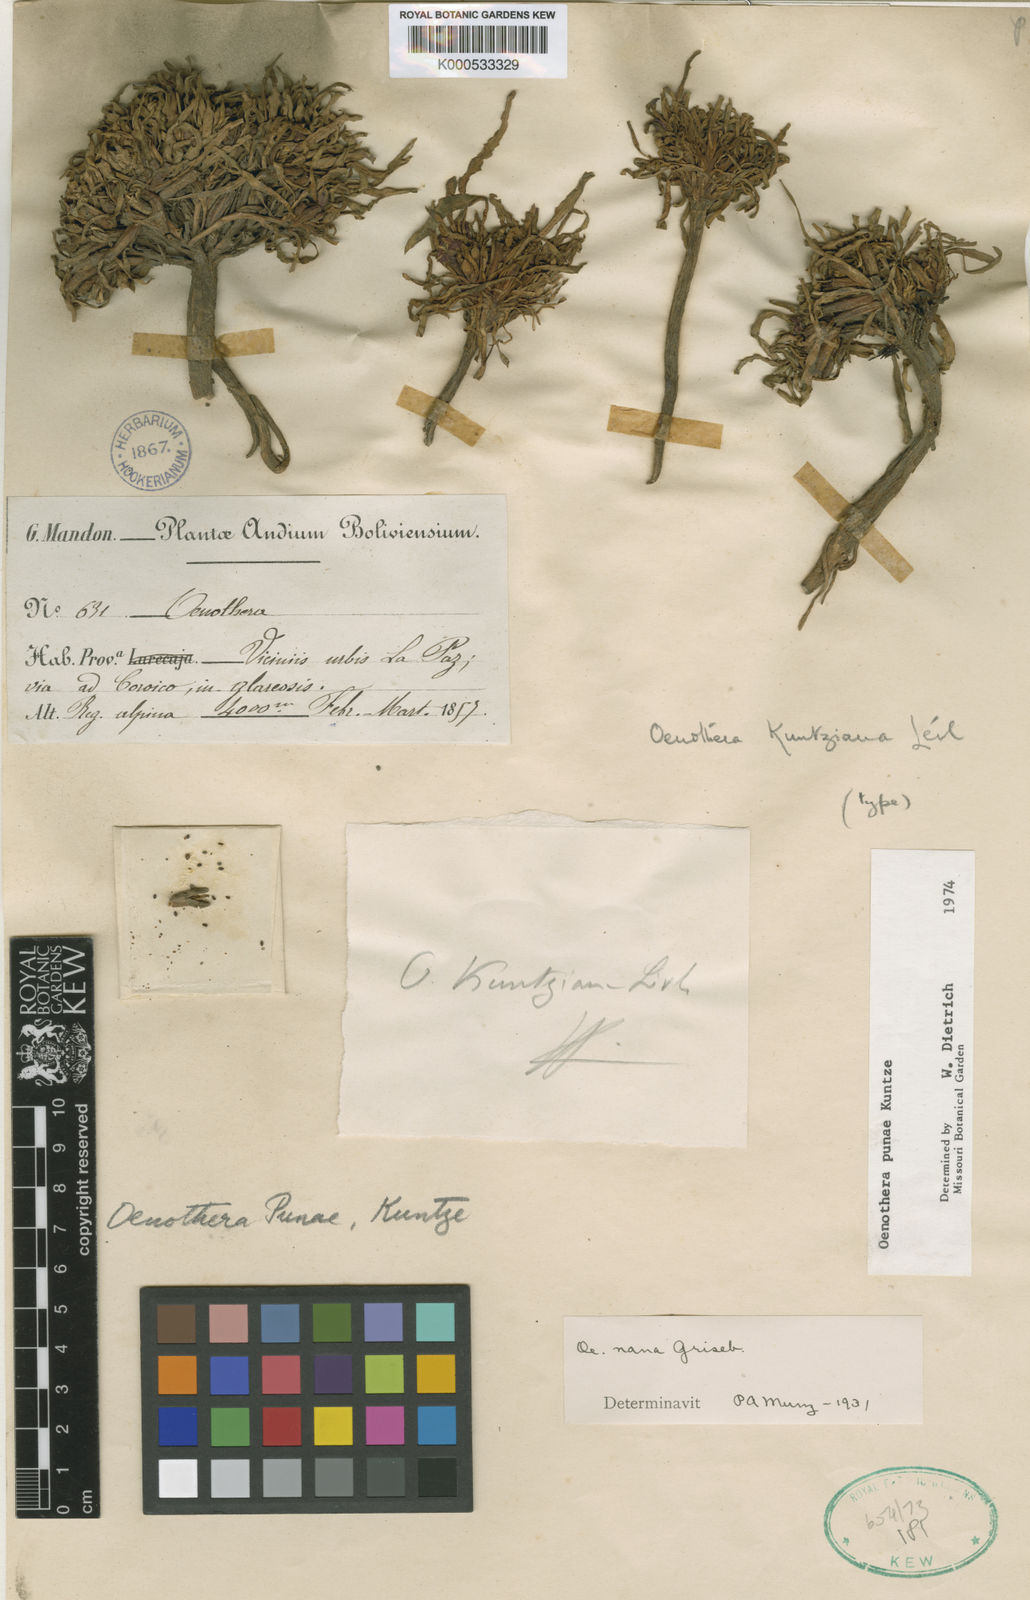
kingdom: Plantae
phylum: Tracheophyta
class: Magnoliopsida
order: Myrtales
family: Onagraceae
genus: Oenothera
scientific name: Oenothera punae
